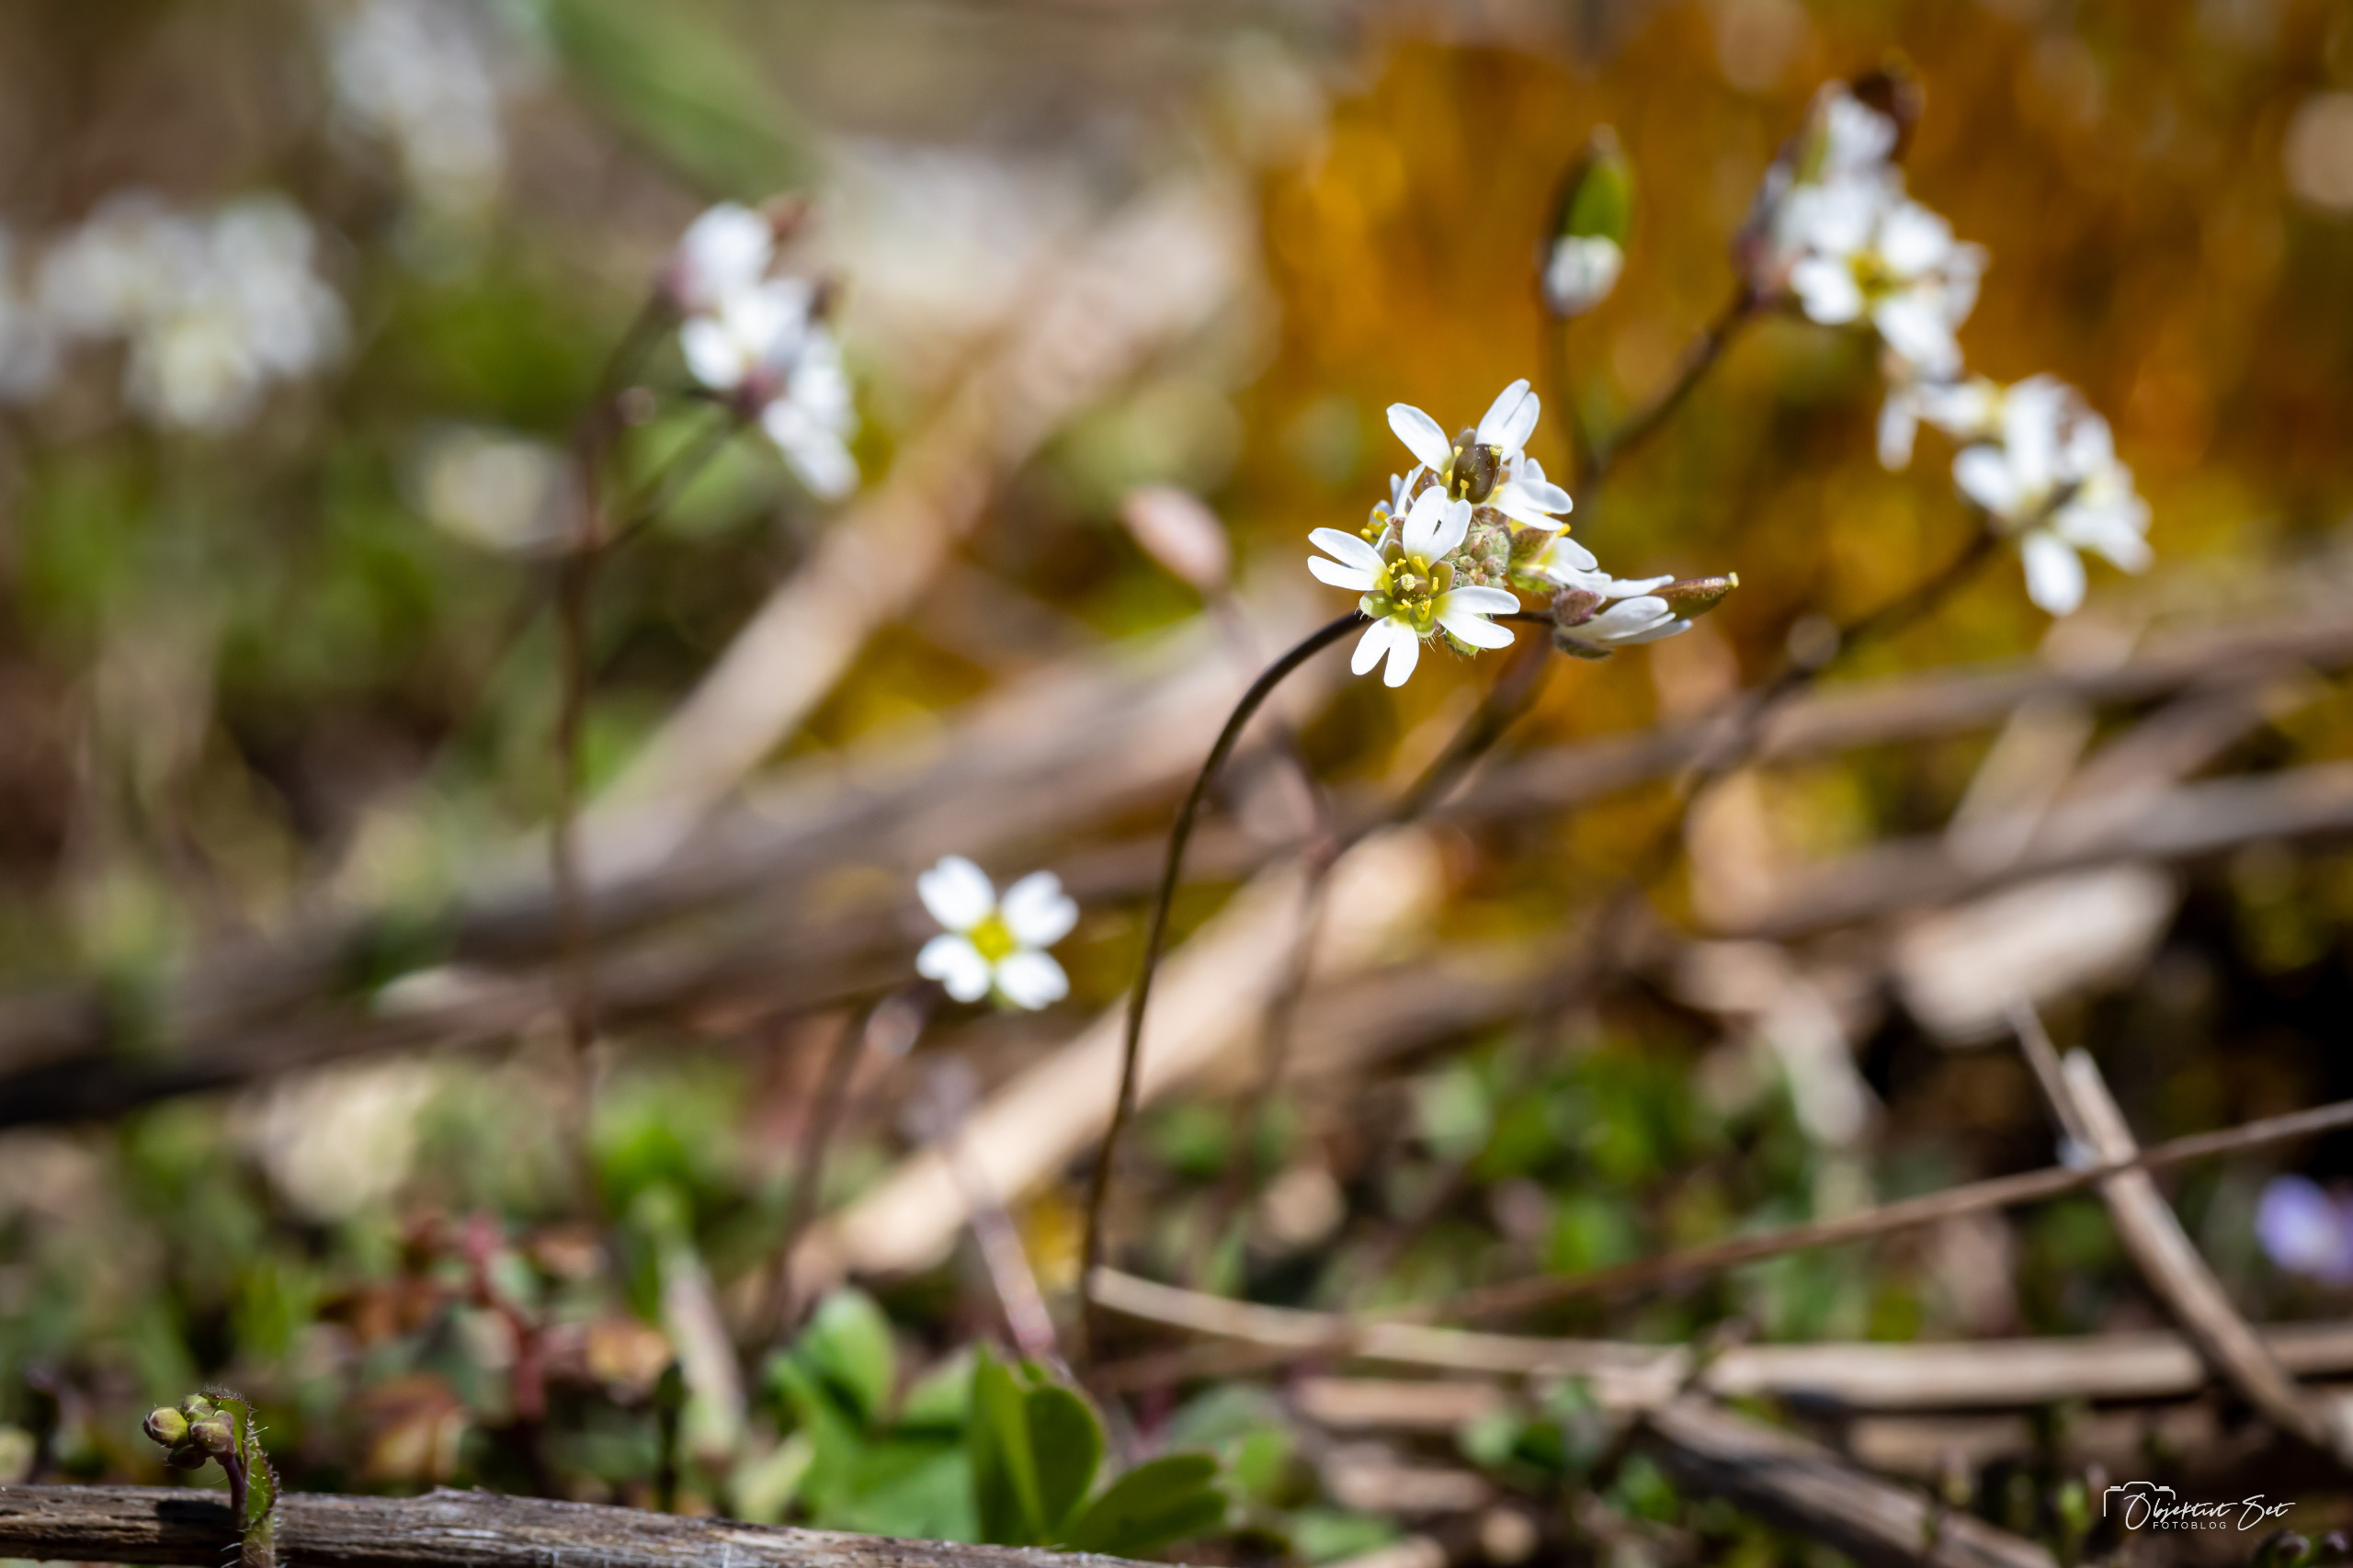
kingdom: Plantae
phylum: Tracheophyta
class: Magnoliopsida
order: Brassicales
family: Brassicaceae
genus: Draba
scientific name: Draba verna
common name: Vår-gæslingeblomst
